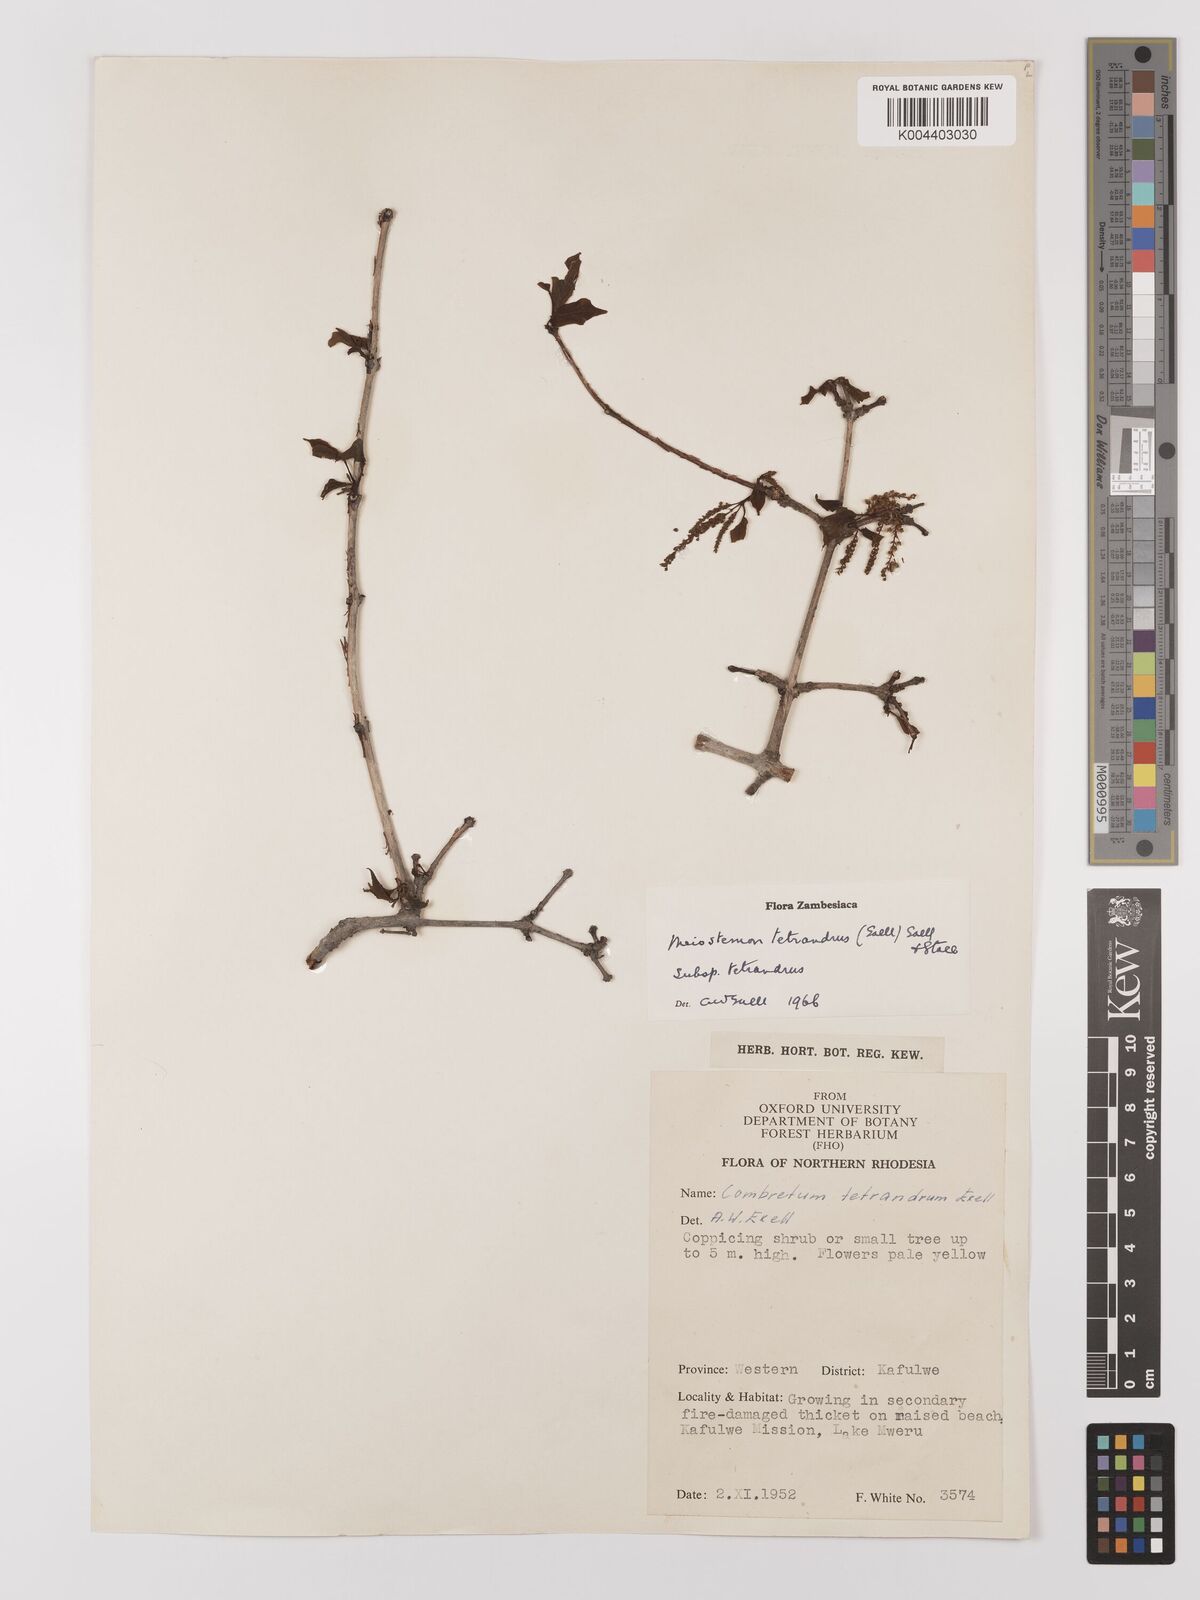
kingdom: Plantae
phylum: Tracheophyta
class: Magnoliopsida
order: Myrtales
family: Combretaceae
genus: Combretum
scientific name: Combretum tetrandrum
